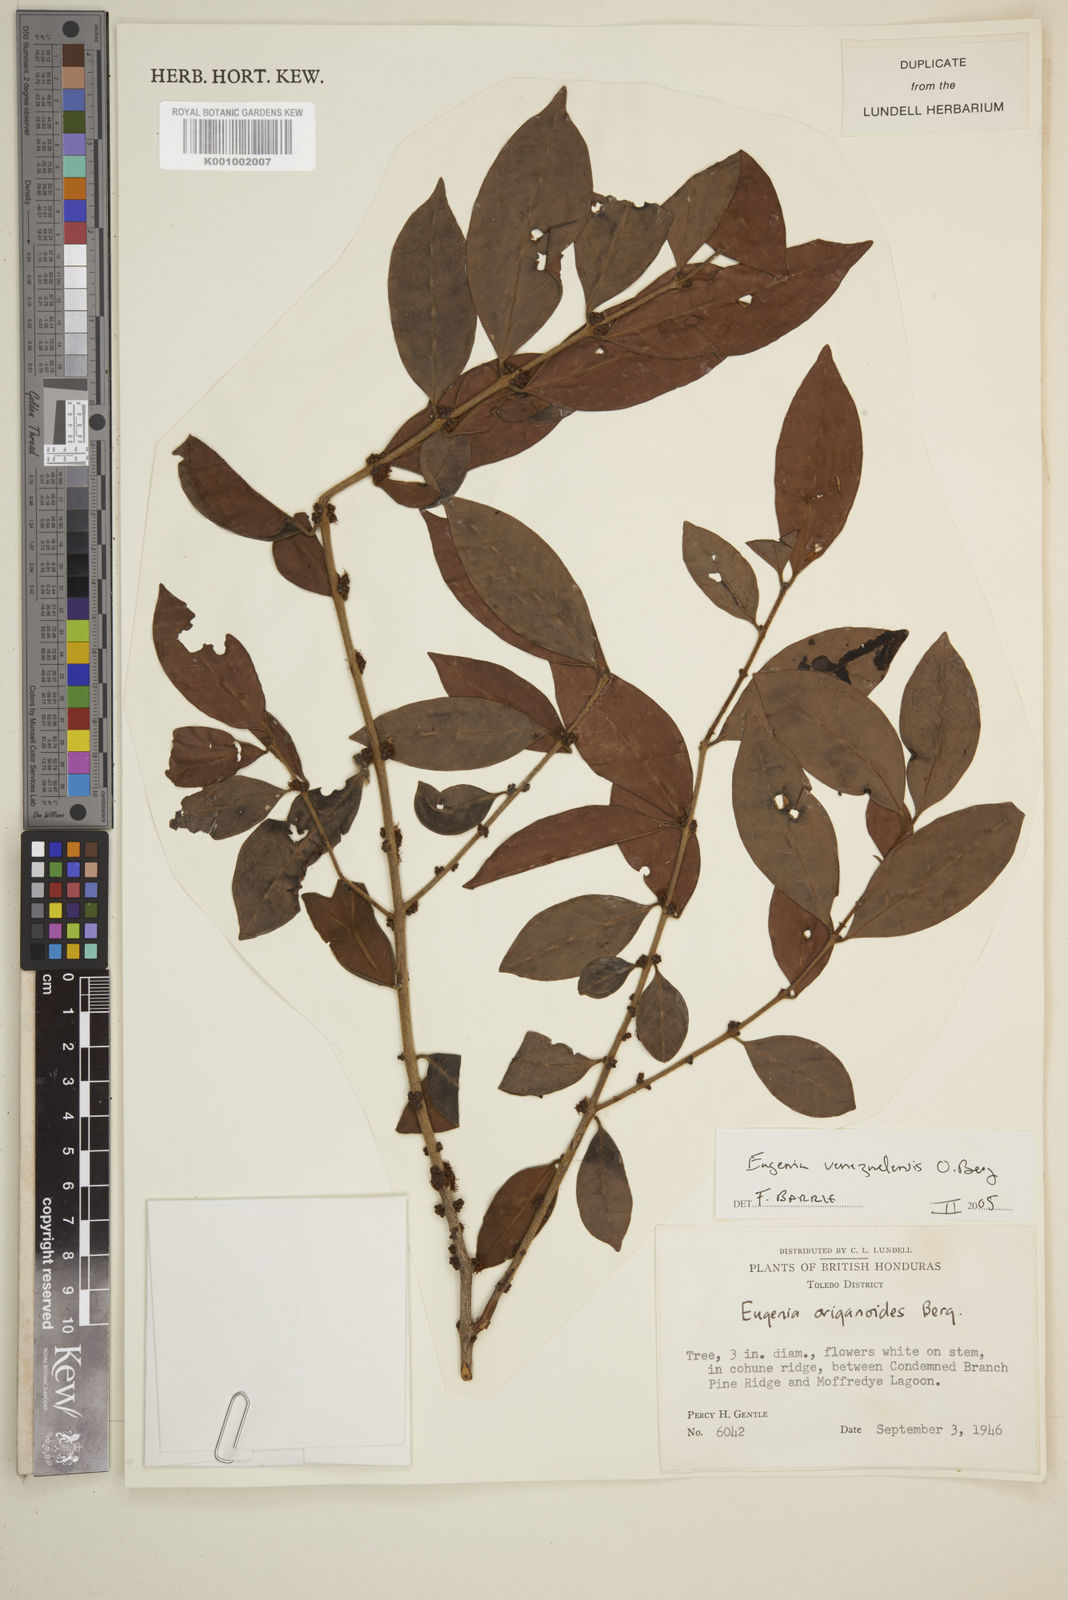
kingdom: Plantae
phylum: Tracheophyta
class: Magnoliopsida
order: Myrtales
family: Myrtaceae
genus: Eugenia
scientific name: Eugenia venezuelensis
